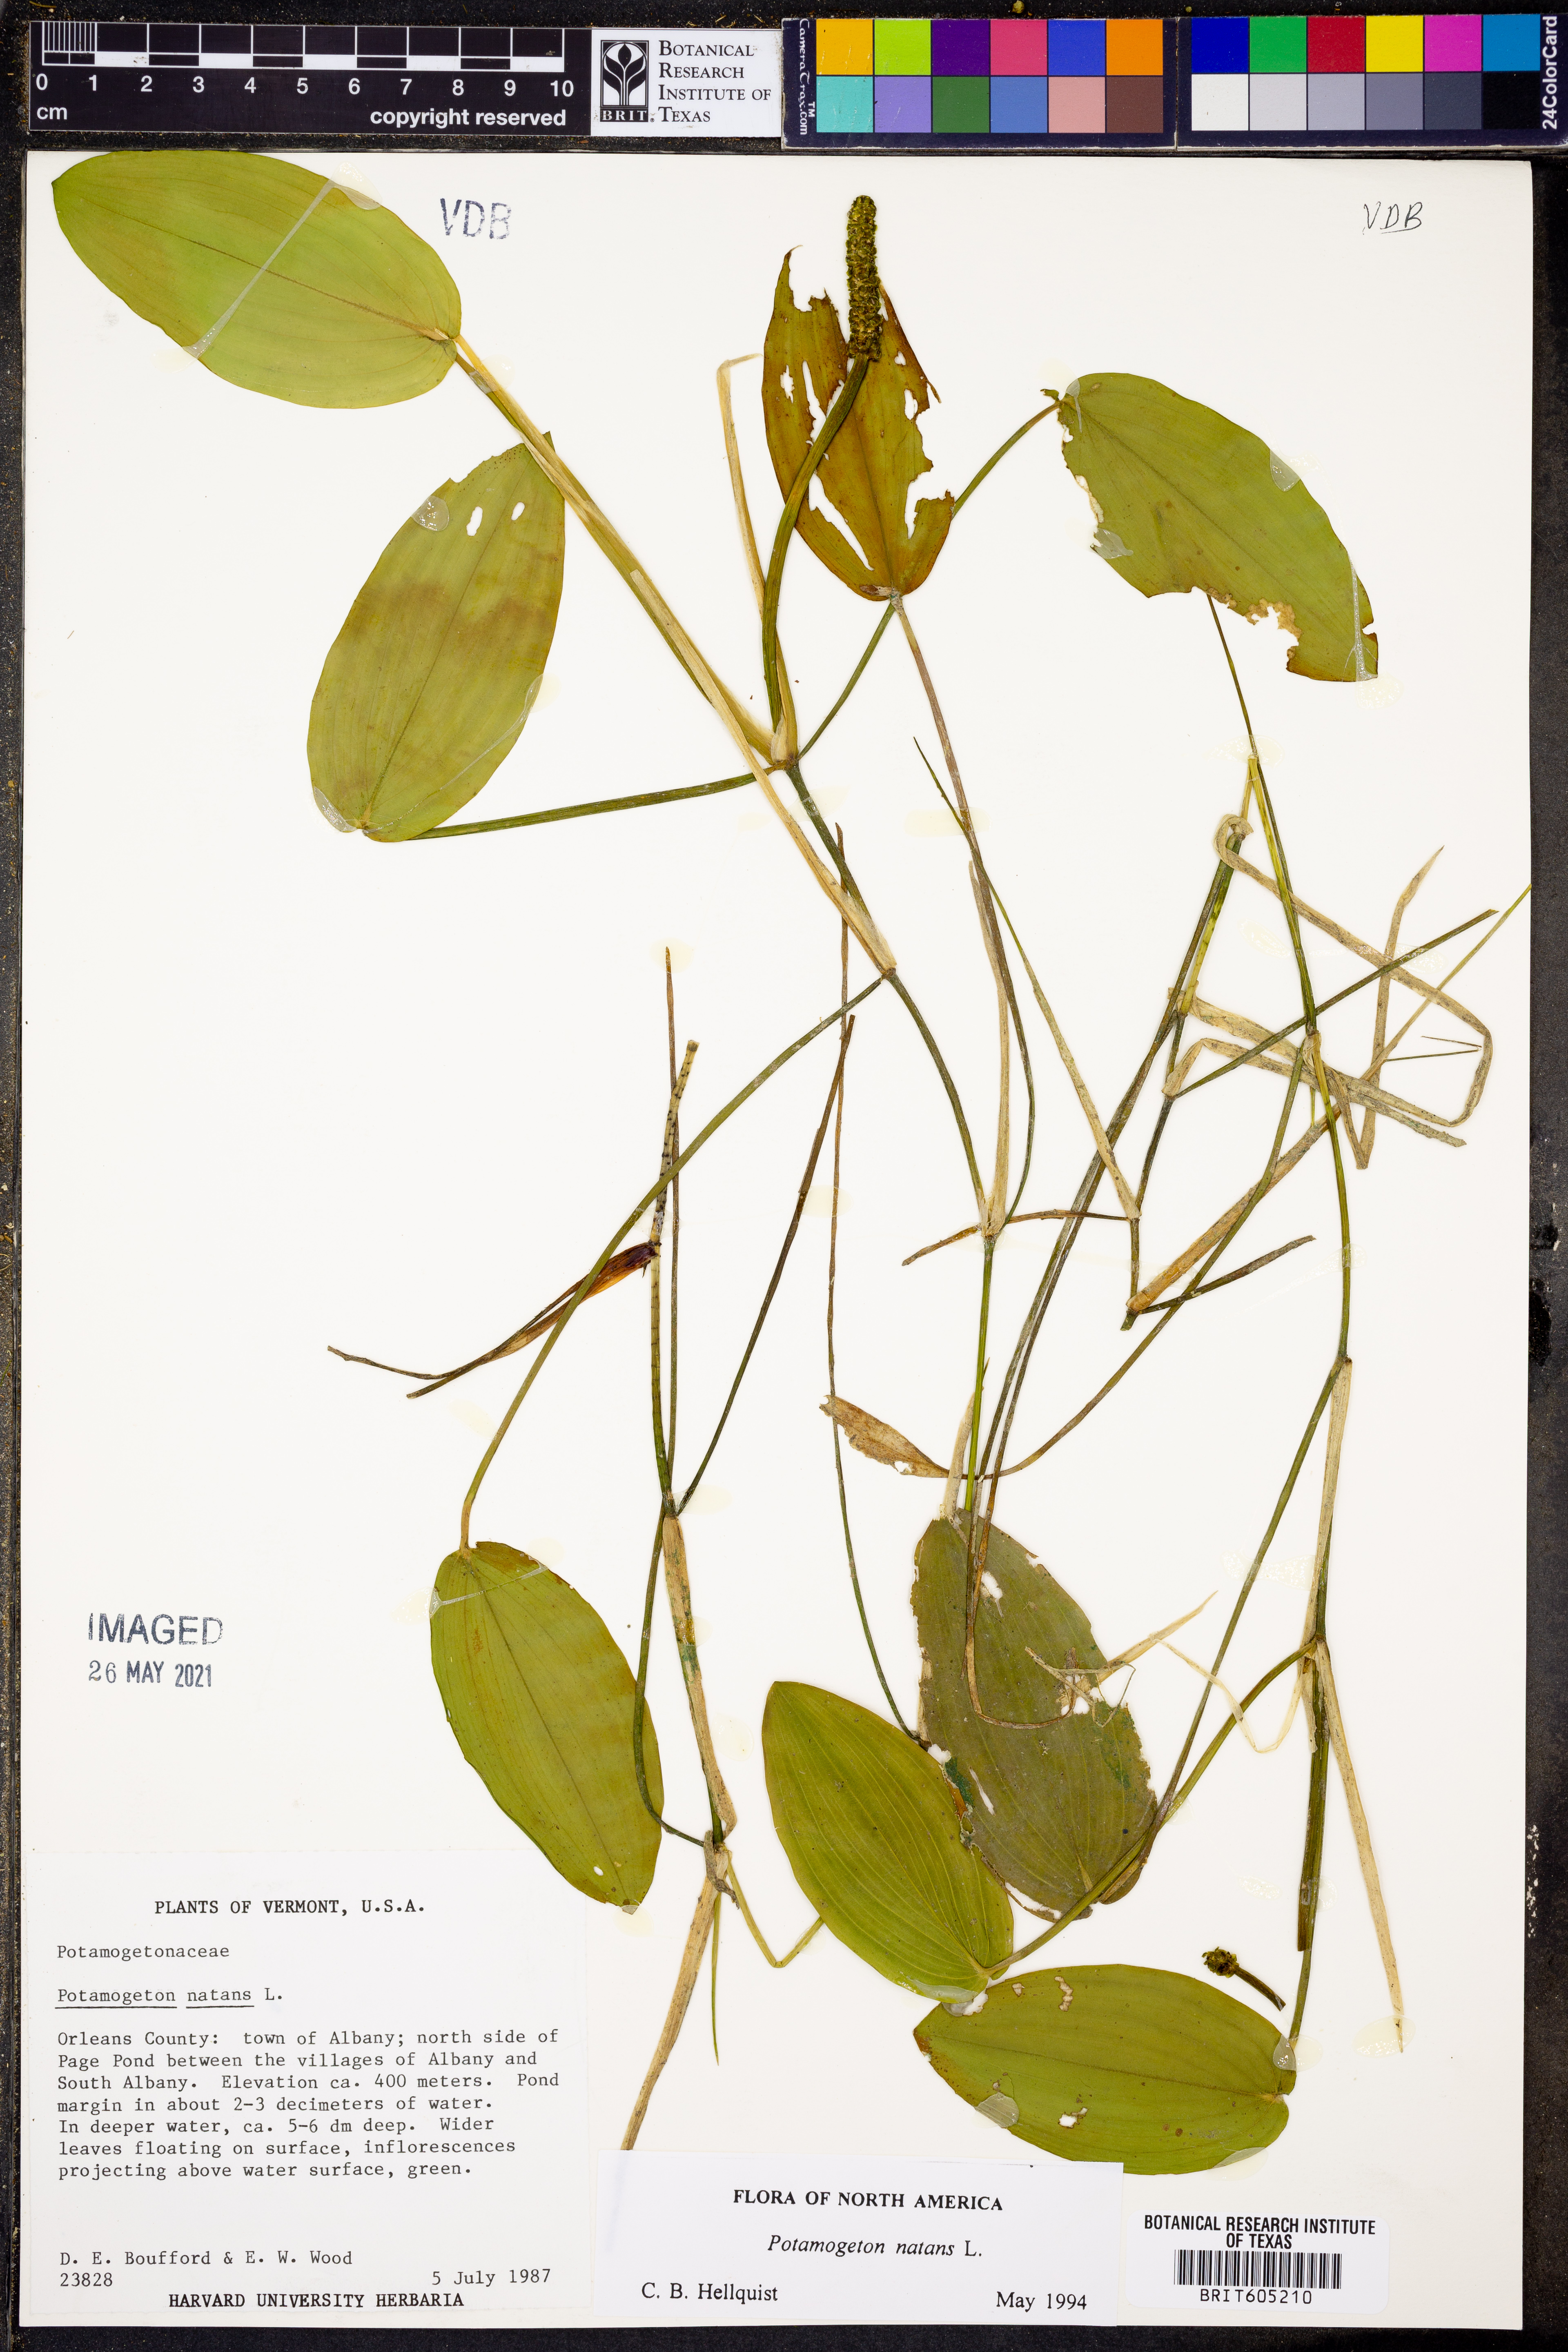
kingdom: Plantae
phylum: Tracheophyta
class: Liliopsida
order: Alismatales
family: Potamogetonaceae
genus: Potamogeton
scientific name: Potamogeton natans
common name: Broad-leaved pondweed
